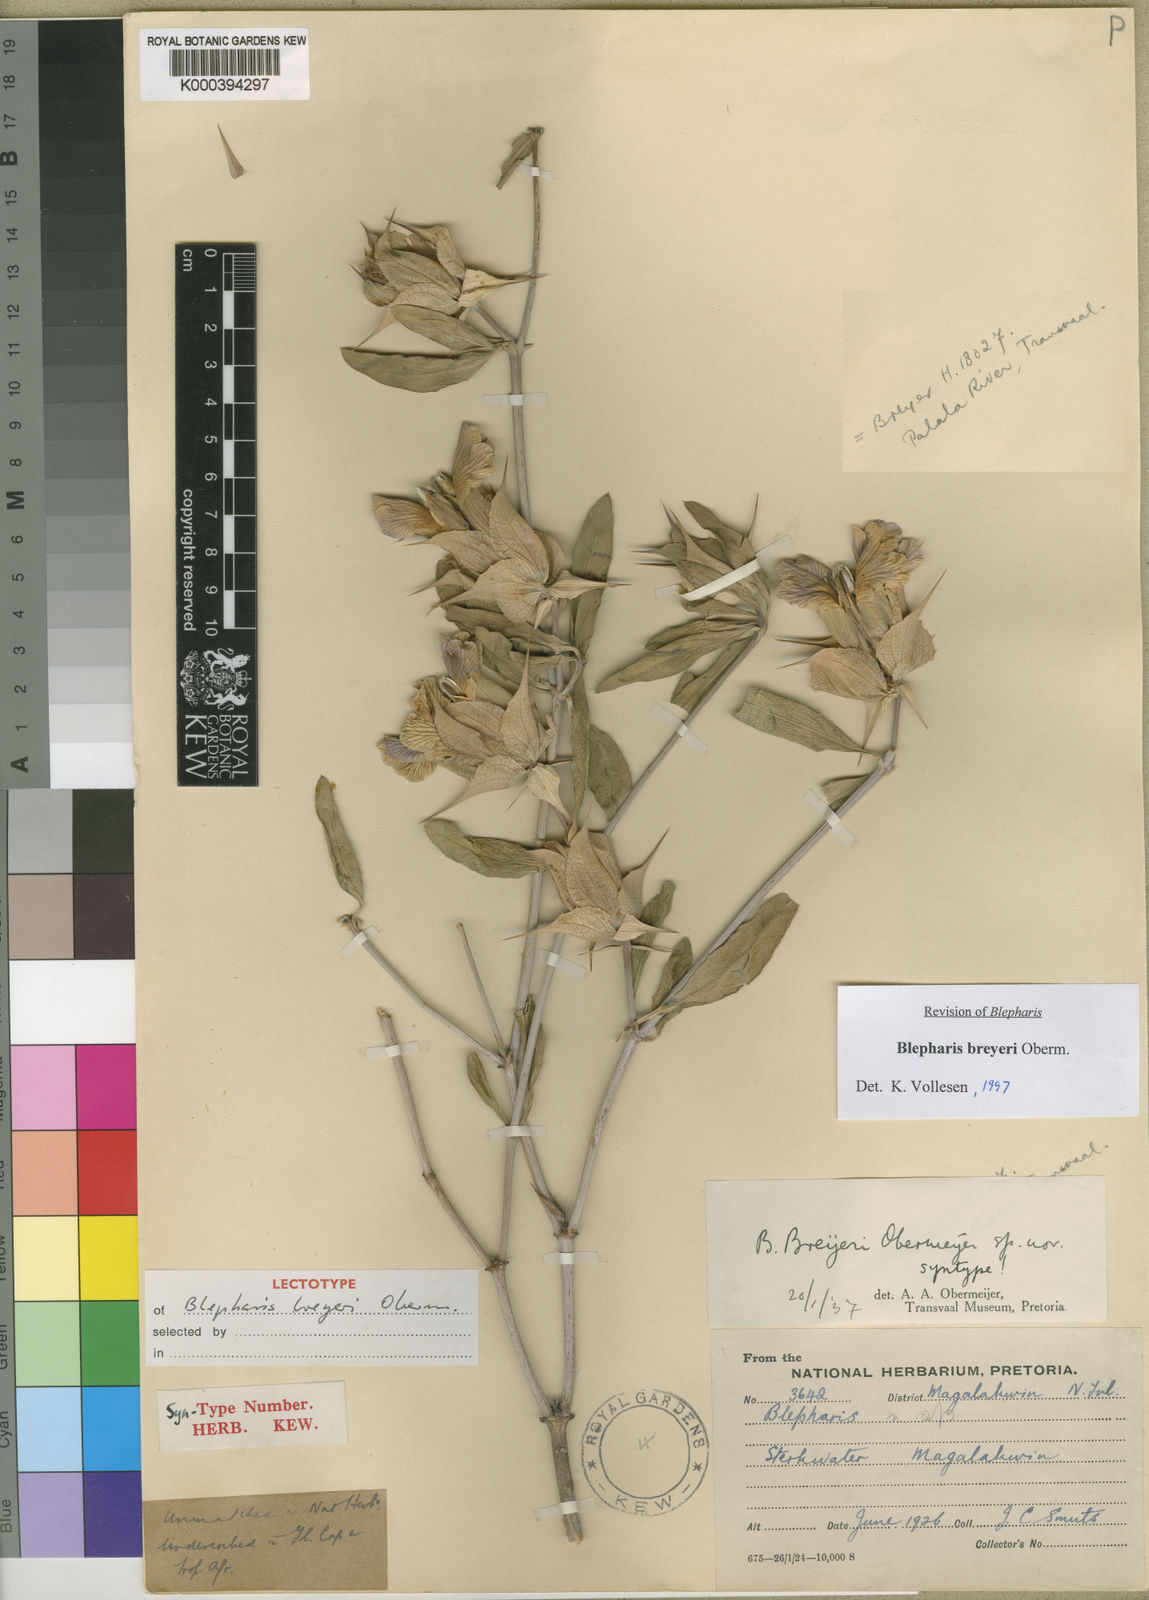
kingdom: Plantae
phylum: Tracheophyta
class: Magnoliopsida
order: Lamiales
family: Acanthaceae
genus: Blepharis
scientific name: Blepharis breyeri
